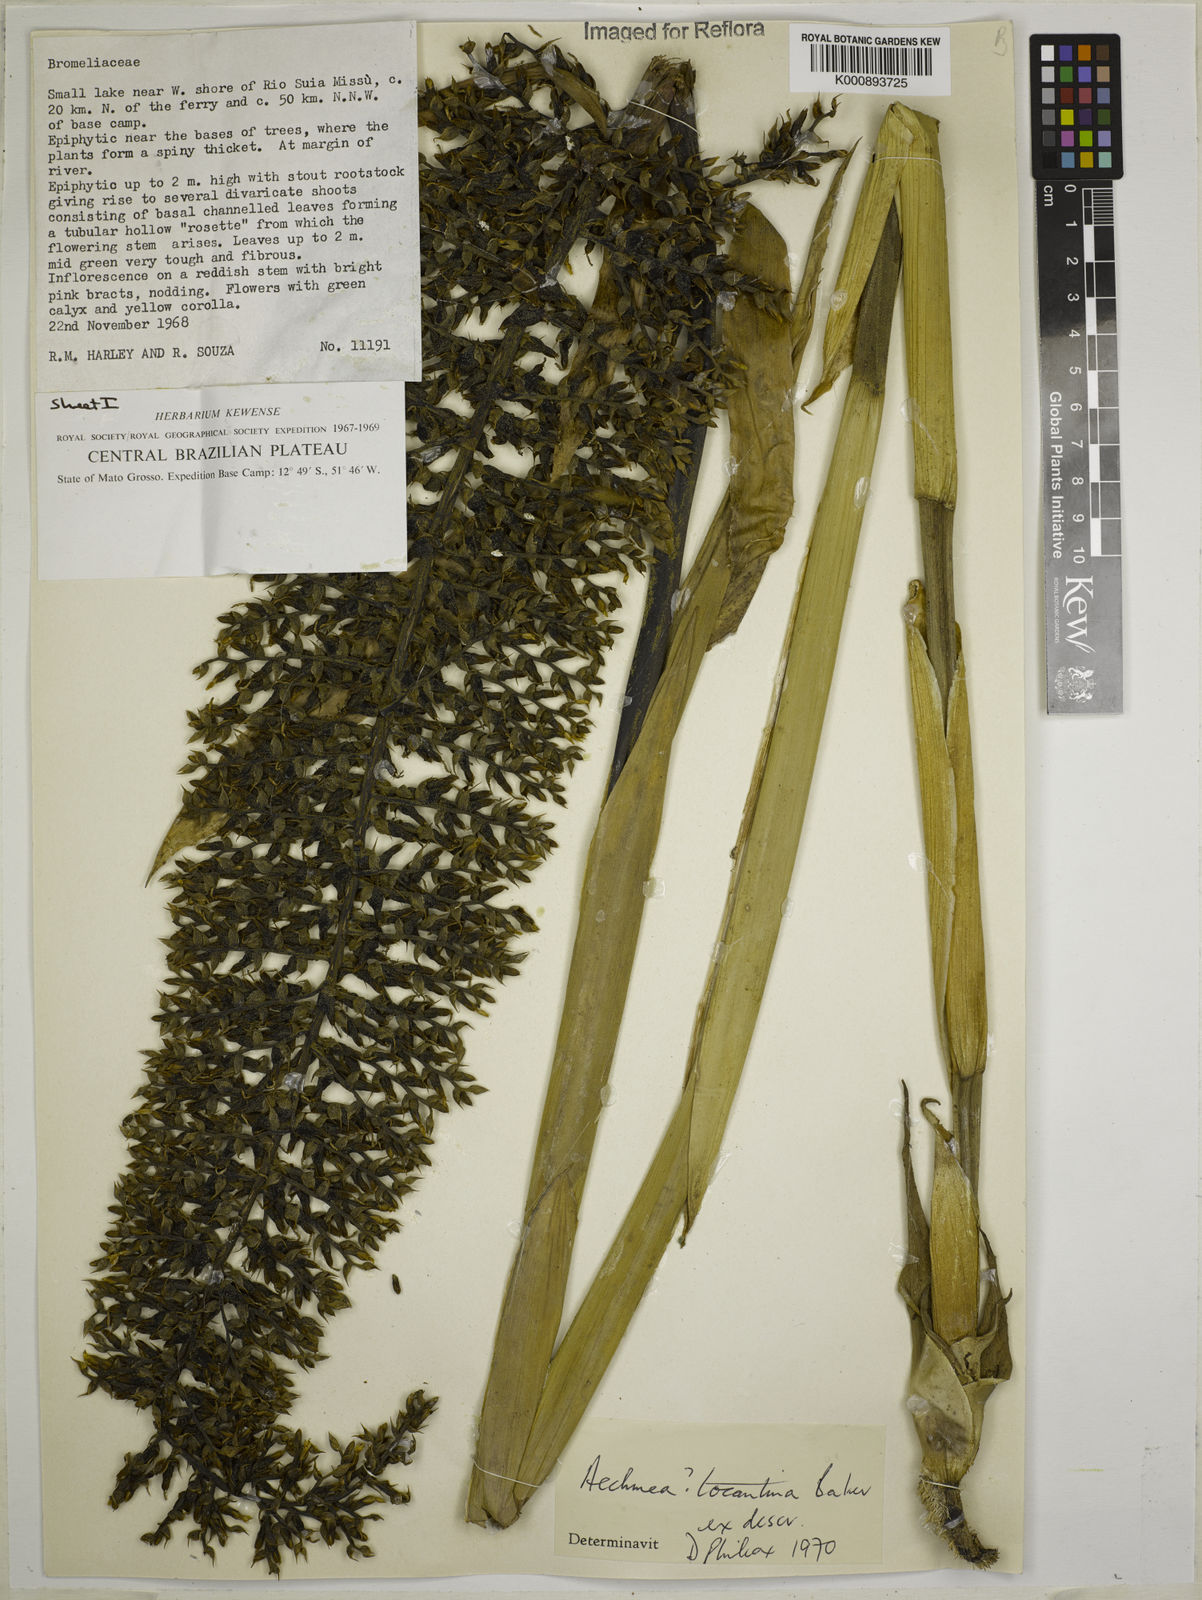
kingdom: Plantae
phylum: Tracheophyta
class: Liliopsida
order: Poales
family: Bromeliaceae
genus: Aechmea
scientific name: Aechmea tocantina
